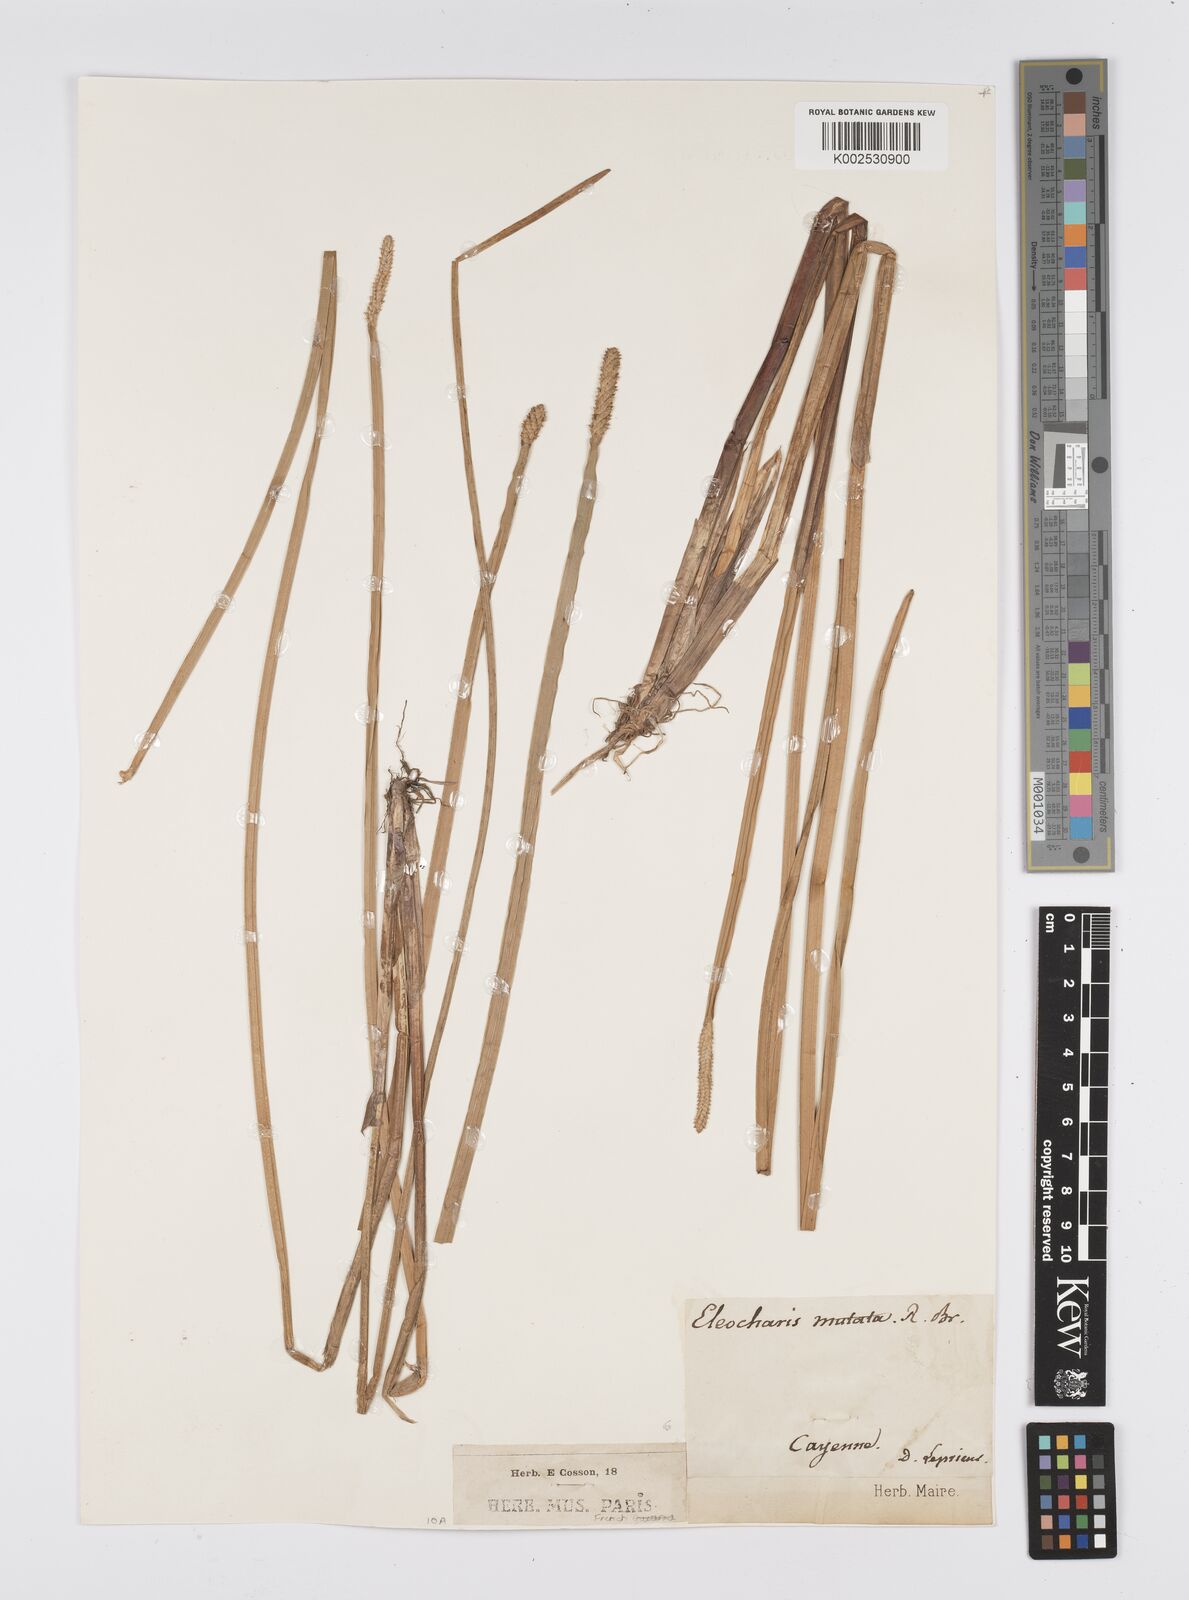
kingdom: Plantae
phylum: Tracheophyta
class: Liliopsida
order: Poales
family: Cyperaceae
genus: Eleocharis
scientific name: Eleocharis mutata
